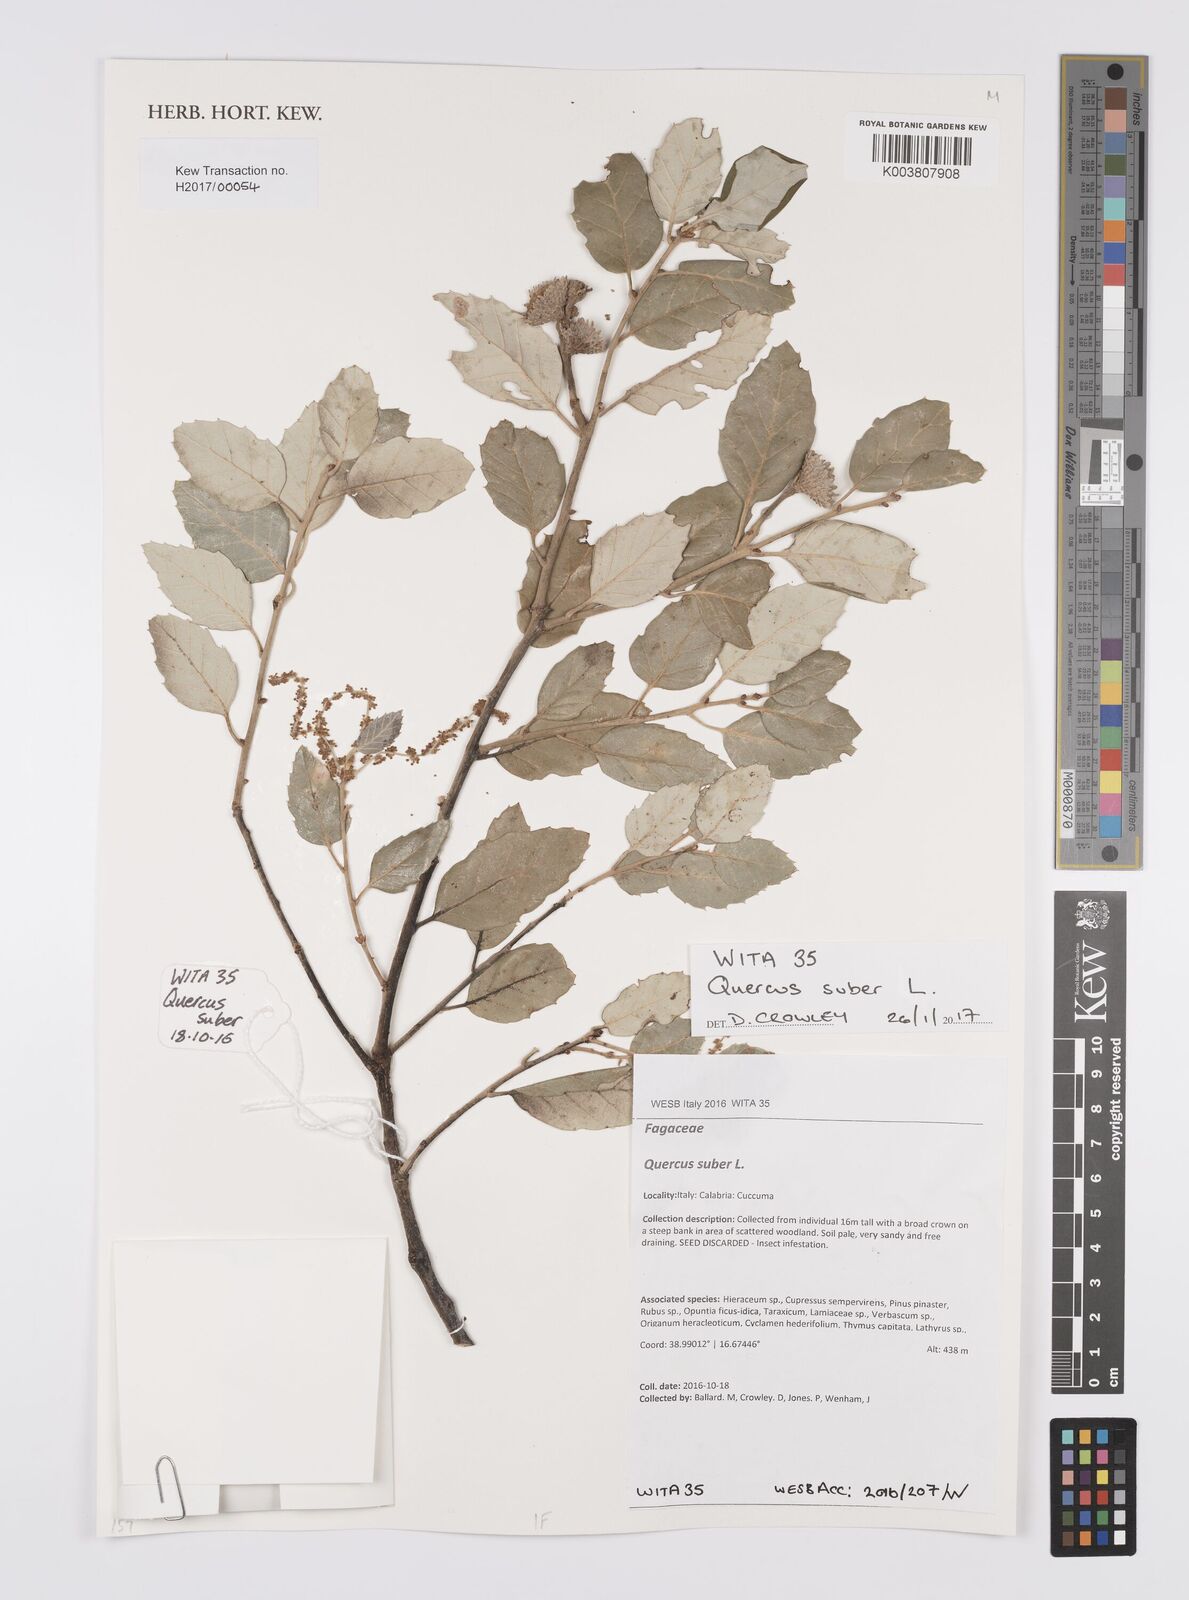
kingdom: Plantae
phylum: Tracheophyta
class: Magnoliopsida
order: Fagales
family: Fagaceae
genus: Quercus
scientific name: Quercus suber
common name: Cork oak
